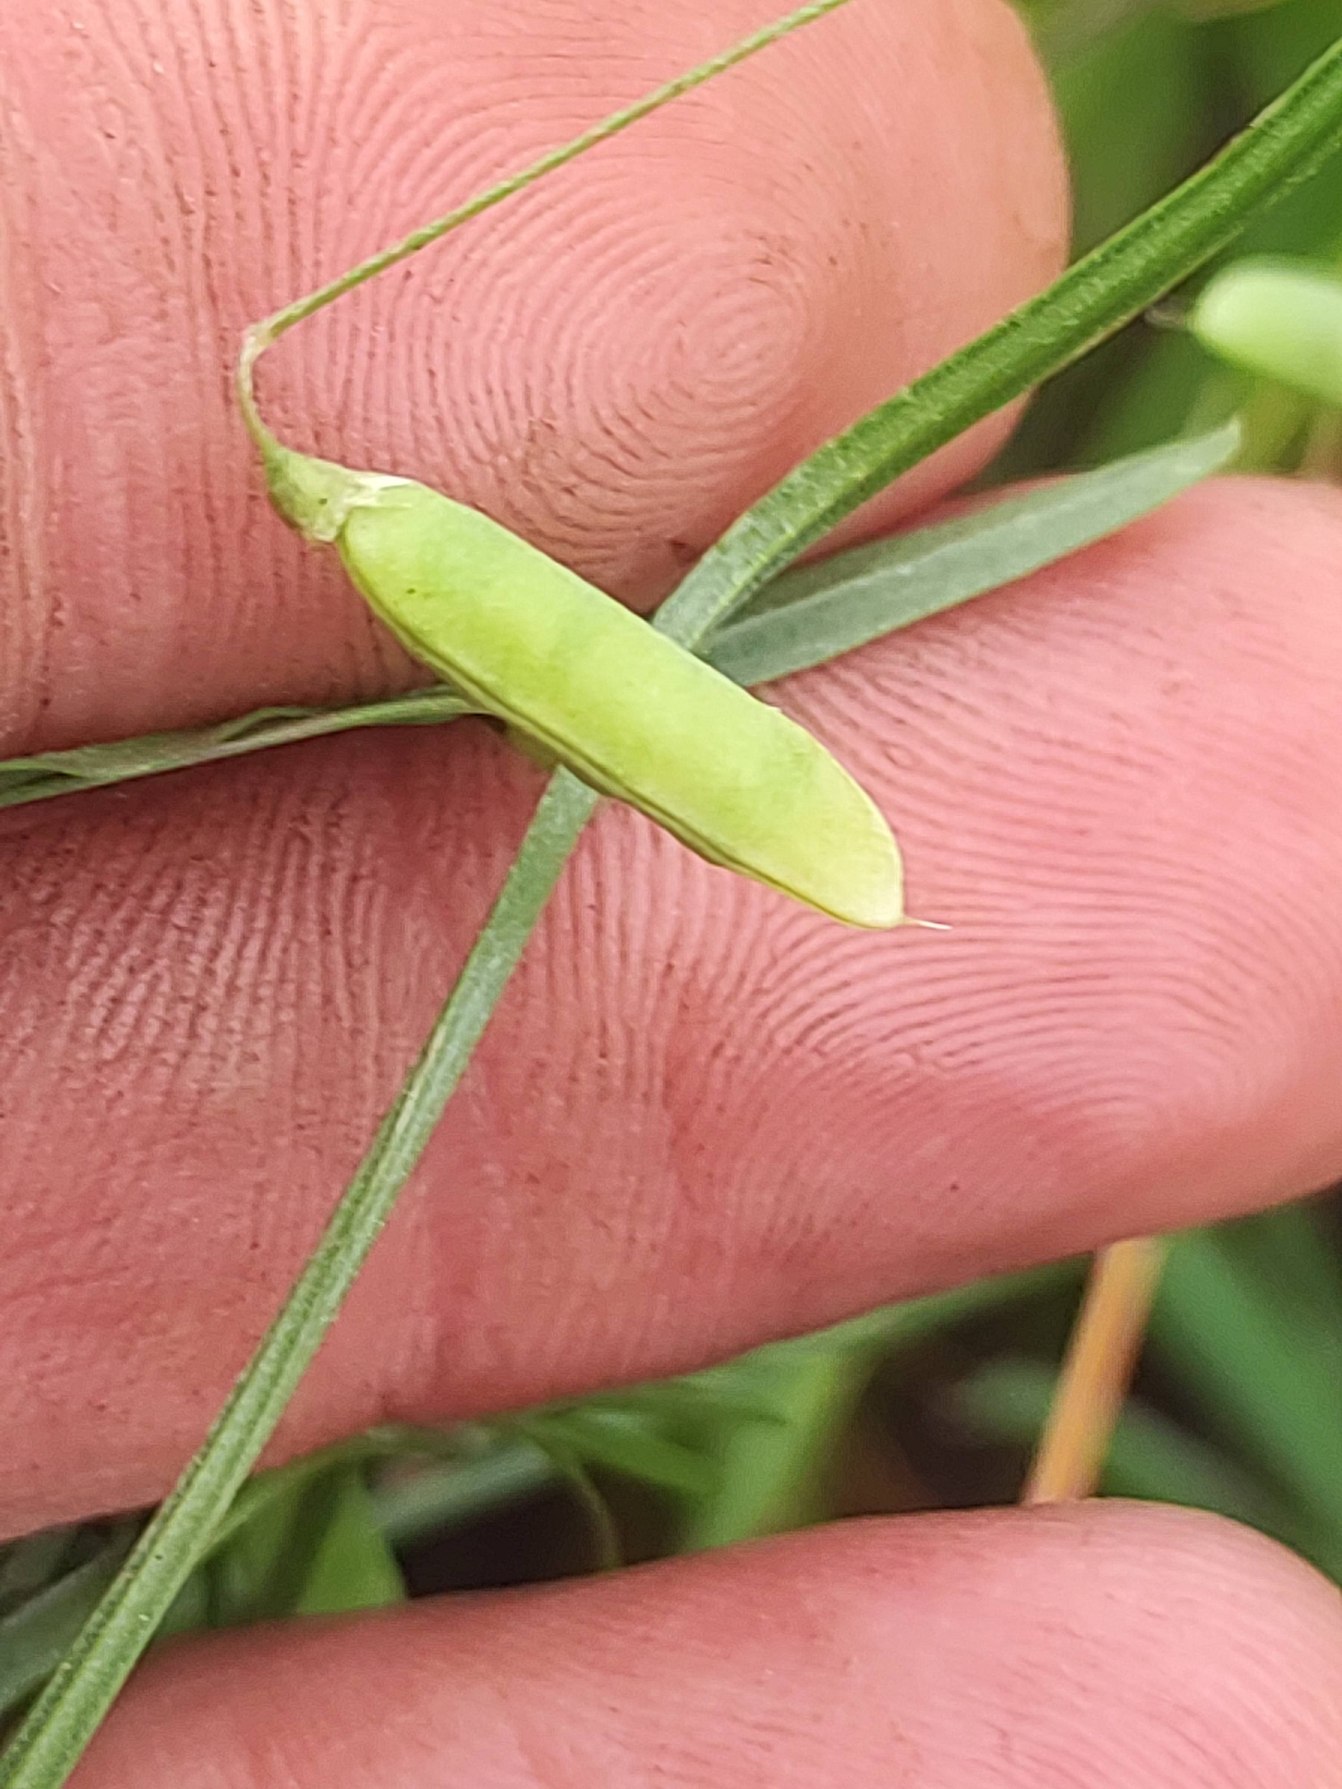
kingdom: Plantae
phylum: Tracheophyta
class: Magnoliopsida
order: Fabales
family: Fabaceae
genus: Vicia
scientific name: Vicia tetrasperma
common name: Tadder-vikke
